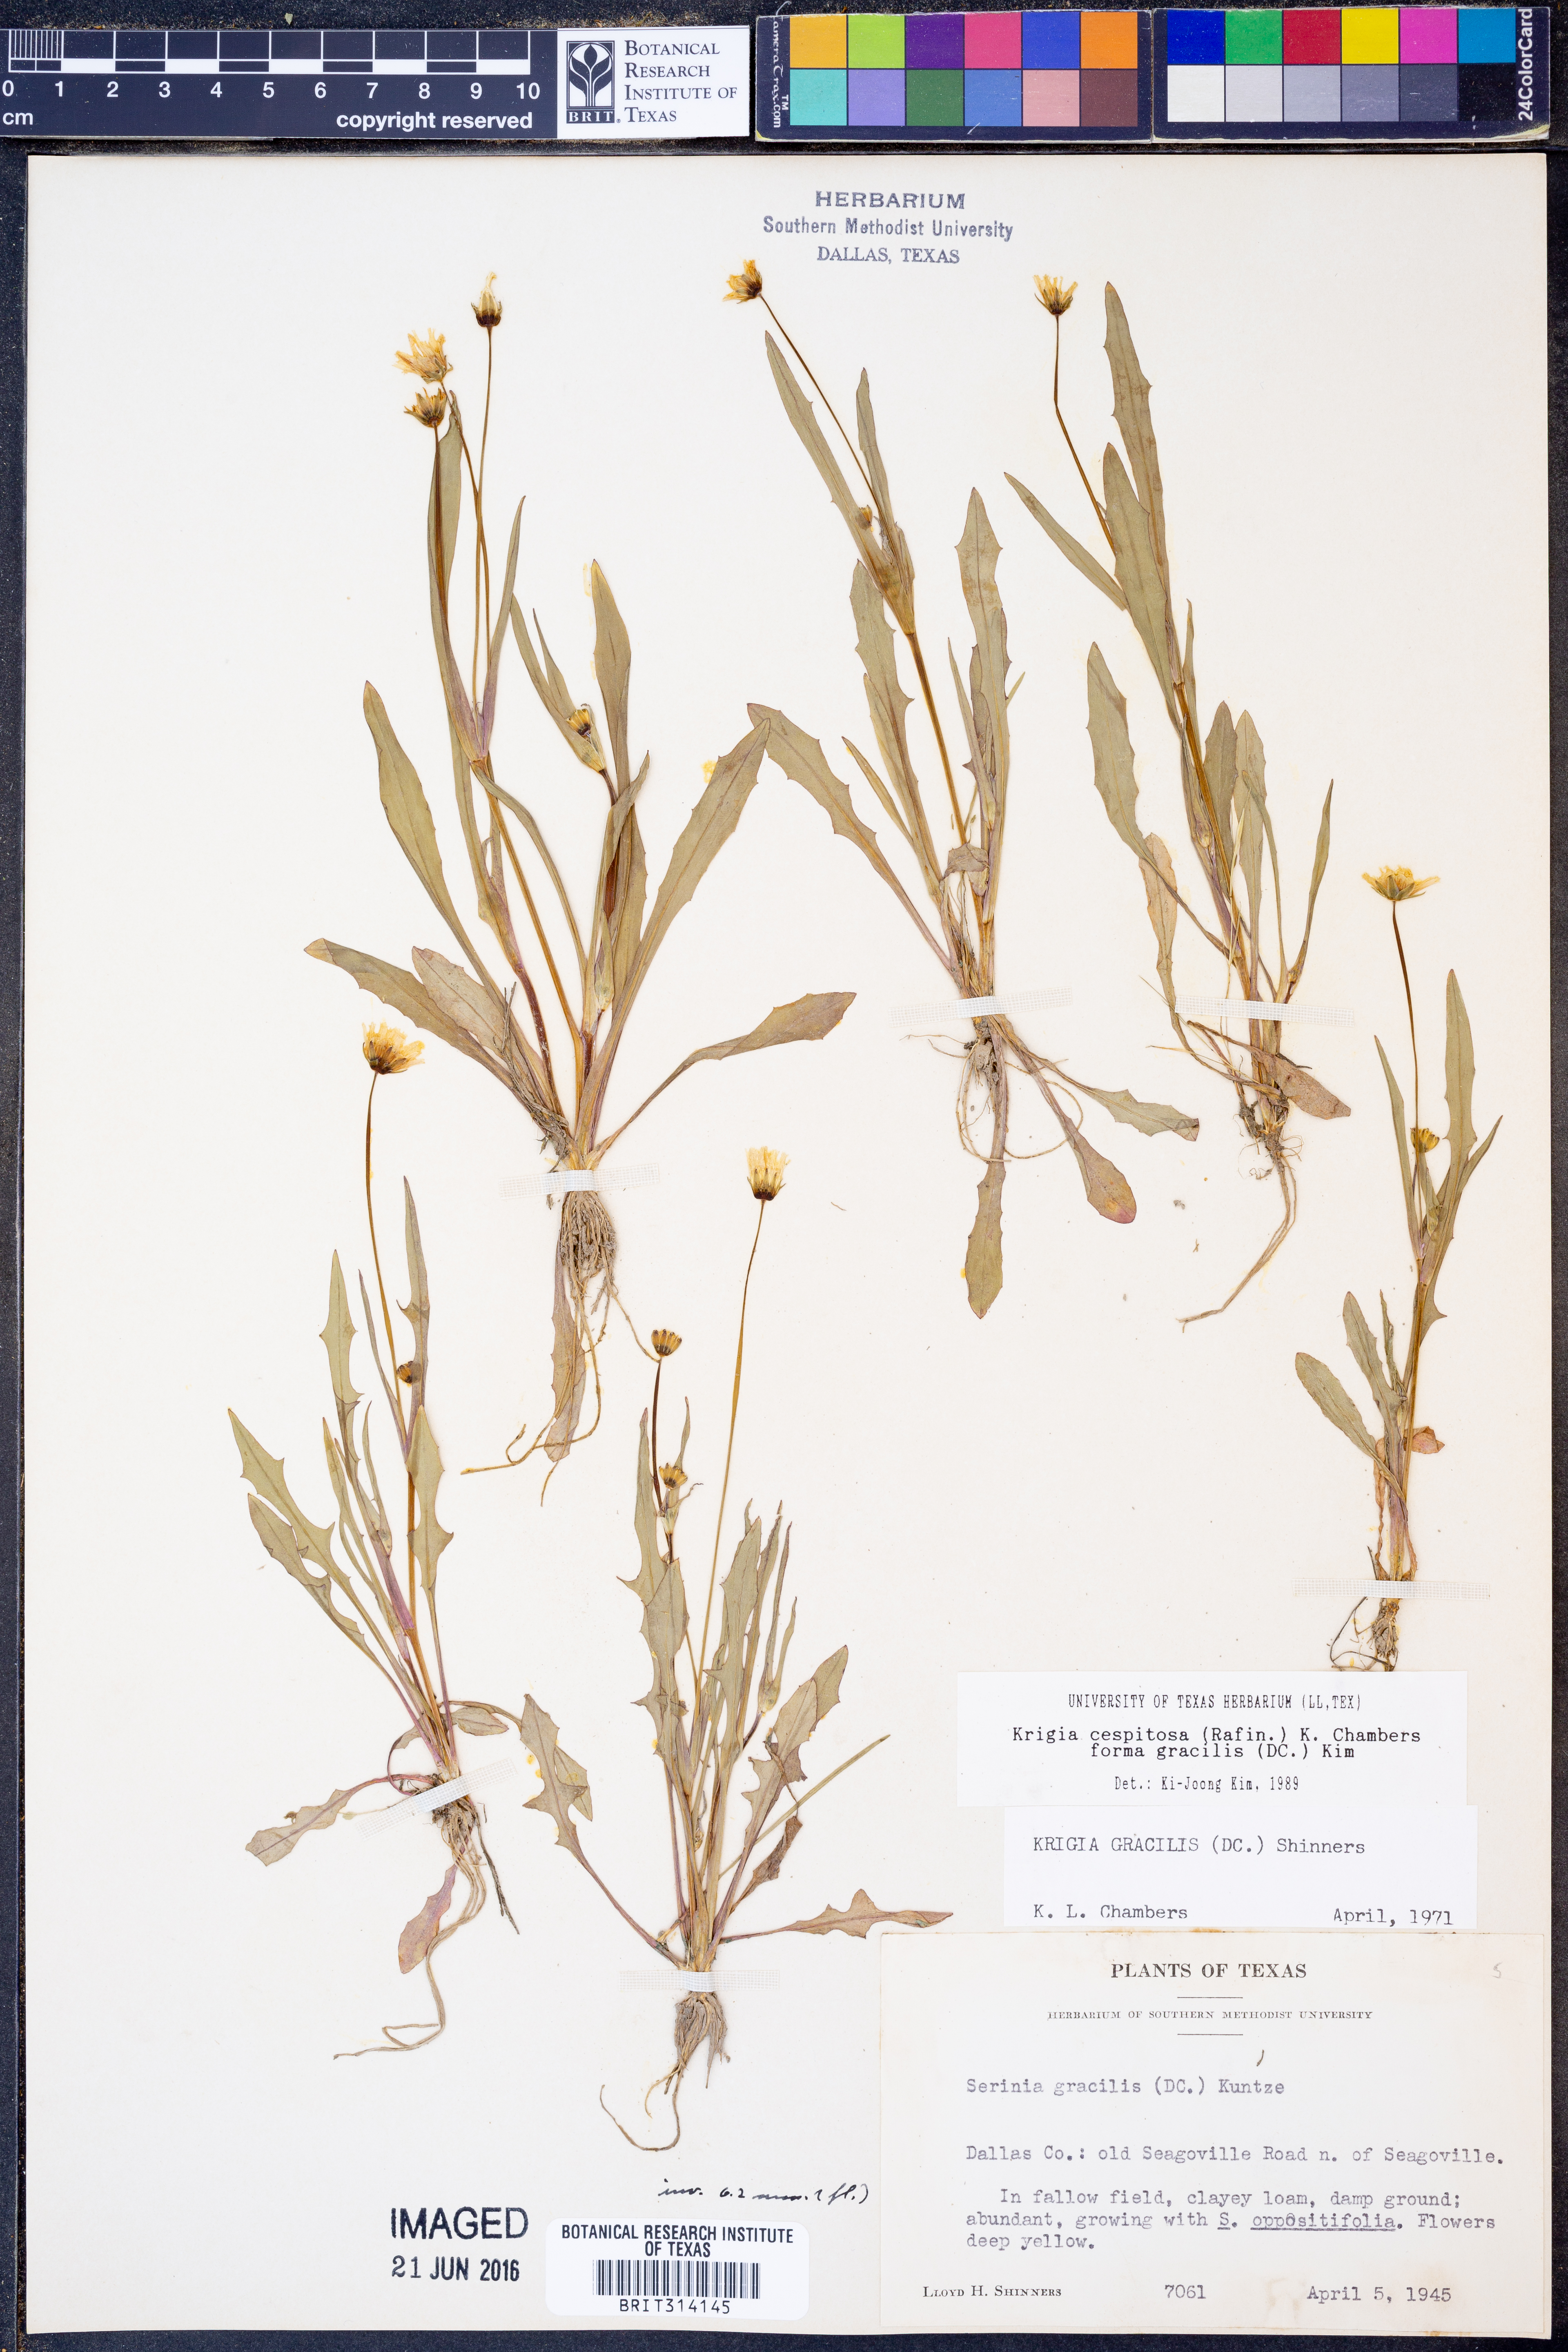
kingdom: Plantae
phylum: Tracheophyta
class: Magnoliopsida
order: Asterales
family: Asteraceae
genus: Krigia
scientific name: Krigia cespitosa
